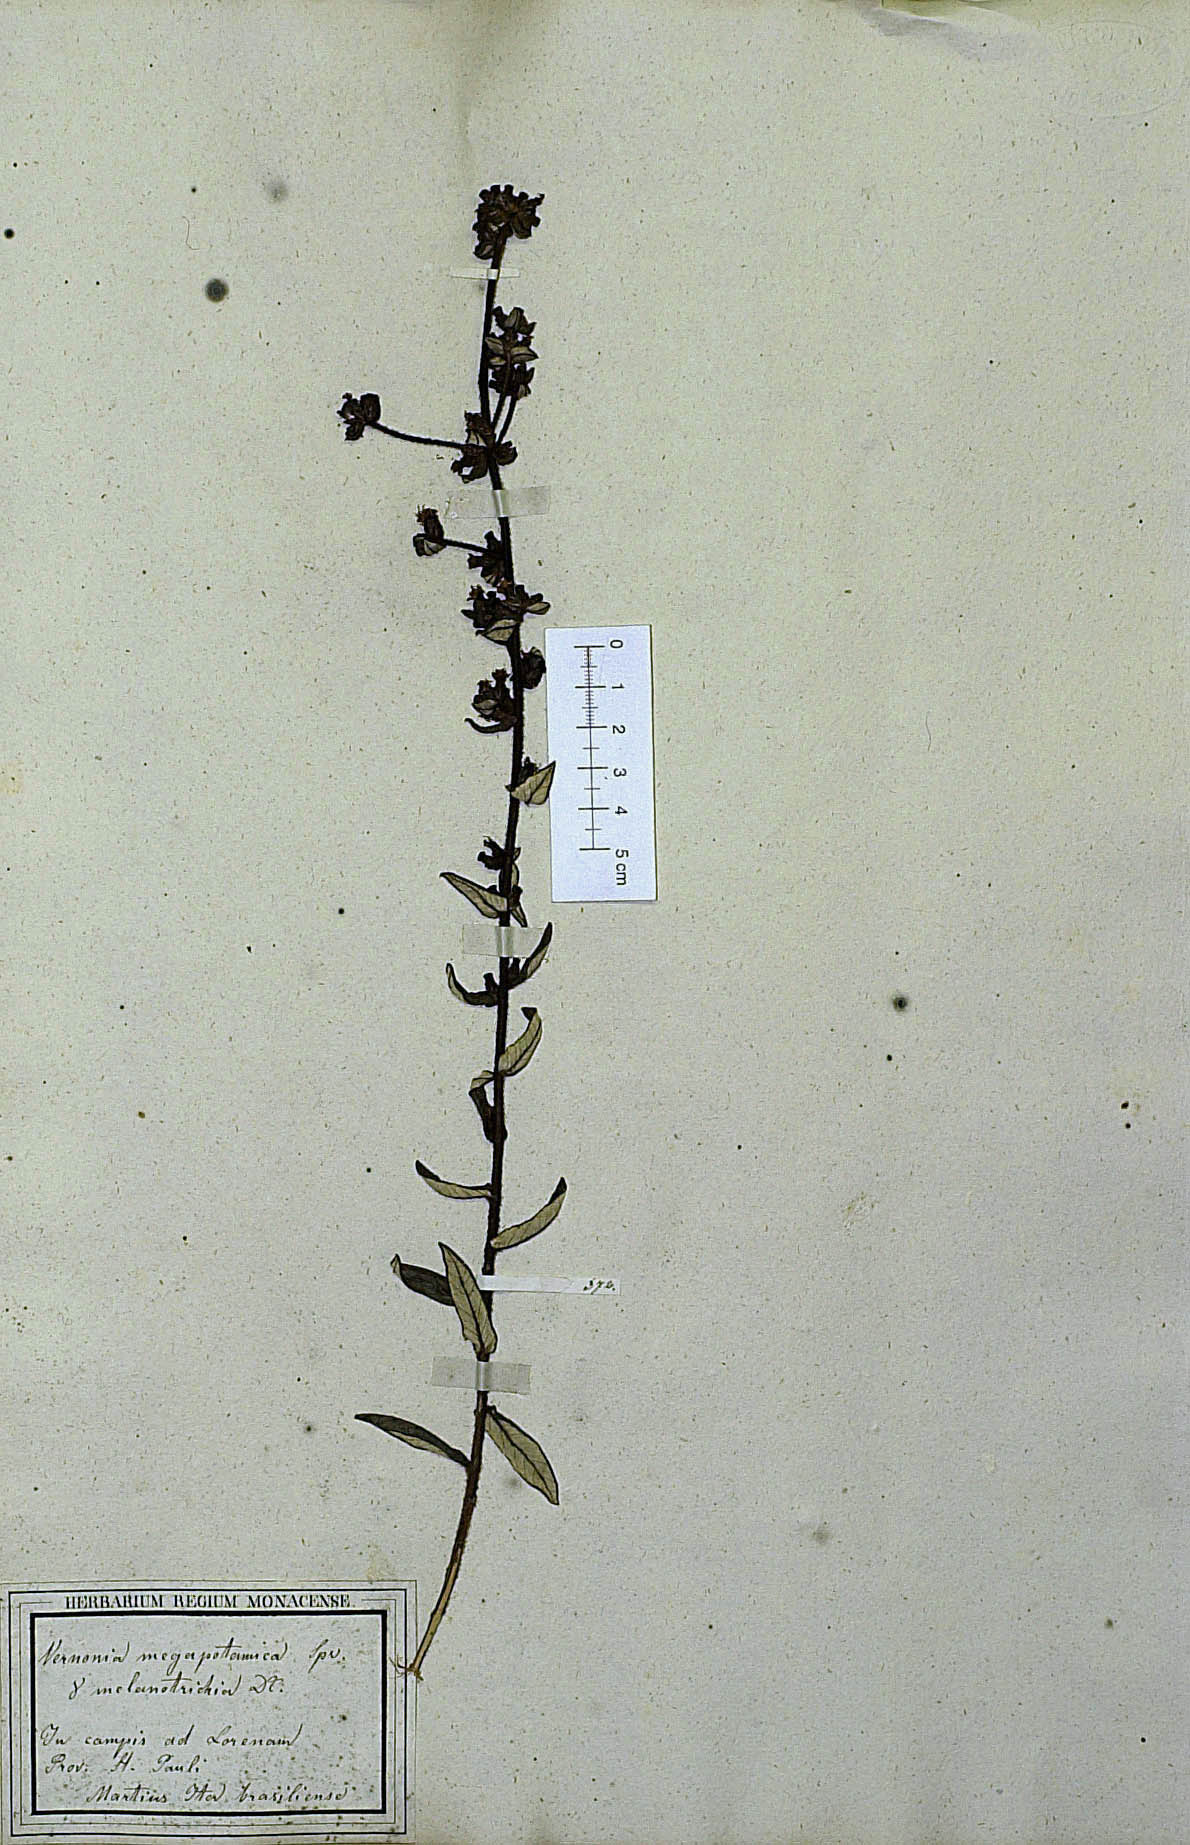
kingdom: Plantae
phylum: Tracheophyta
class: Magnoliopsida
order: Asterales
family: Asteraceae
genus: Stenocephalum
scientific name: Stenocephalum megapotamicum
